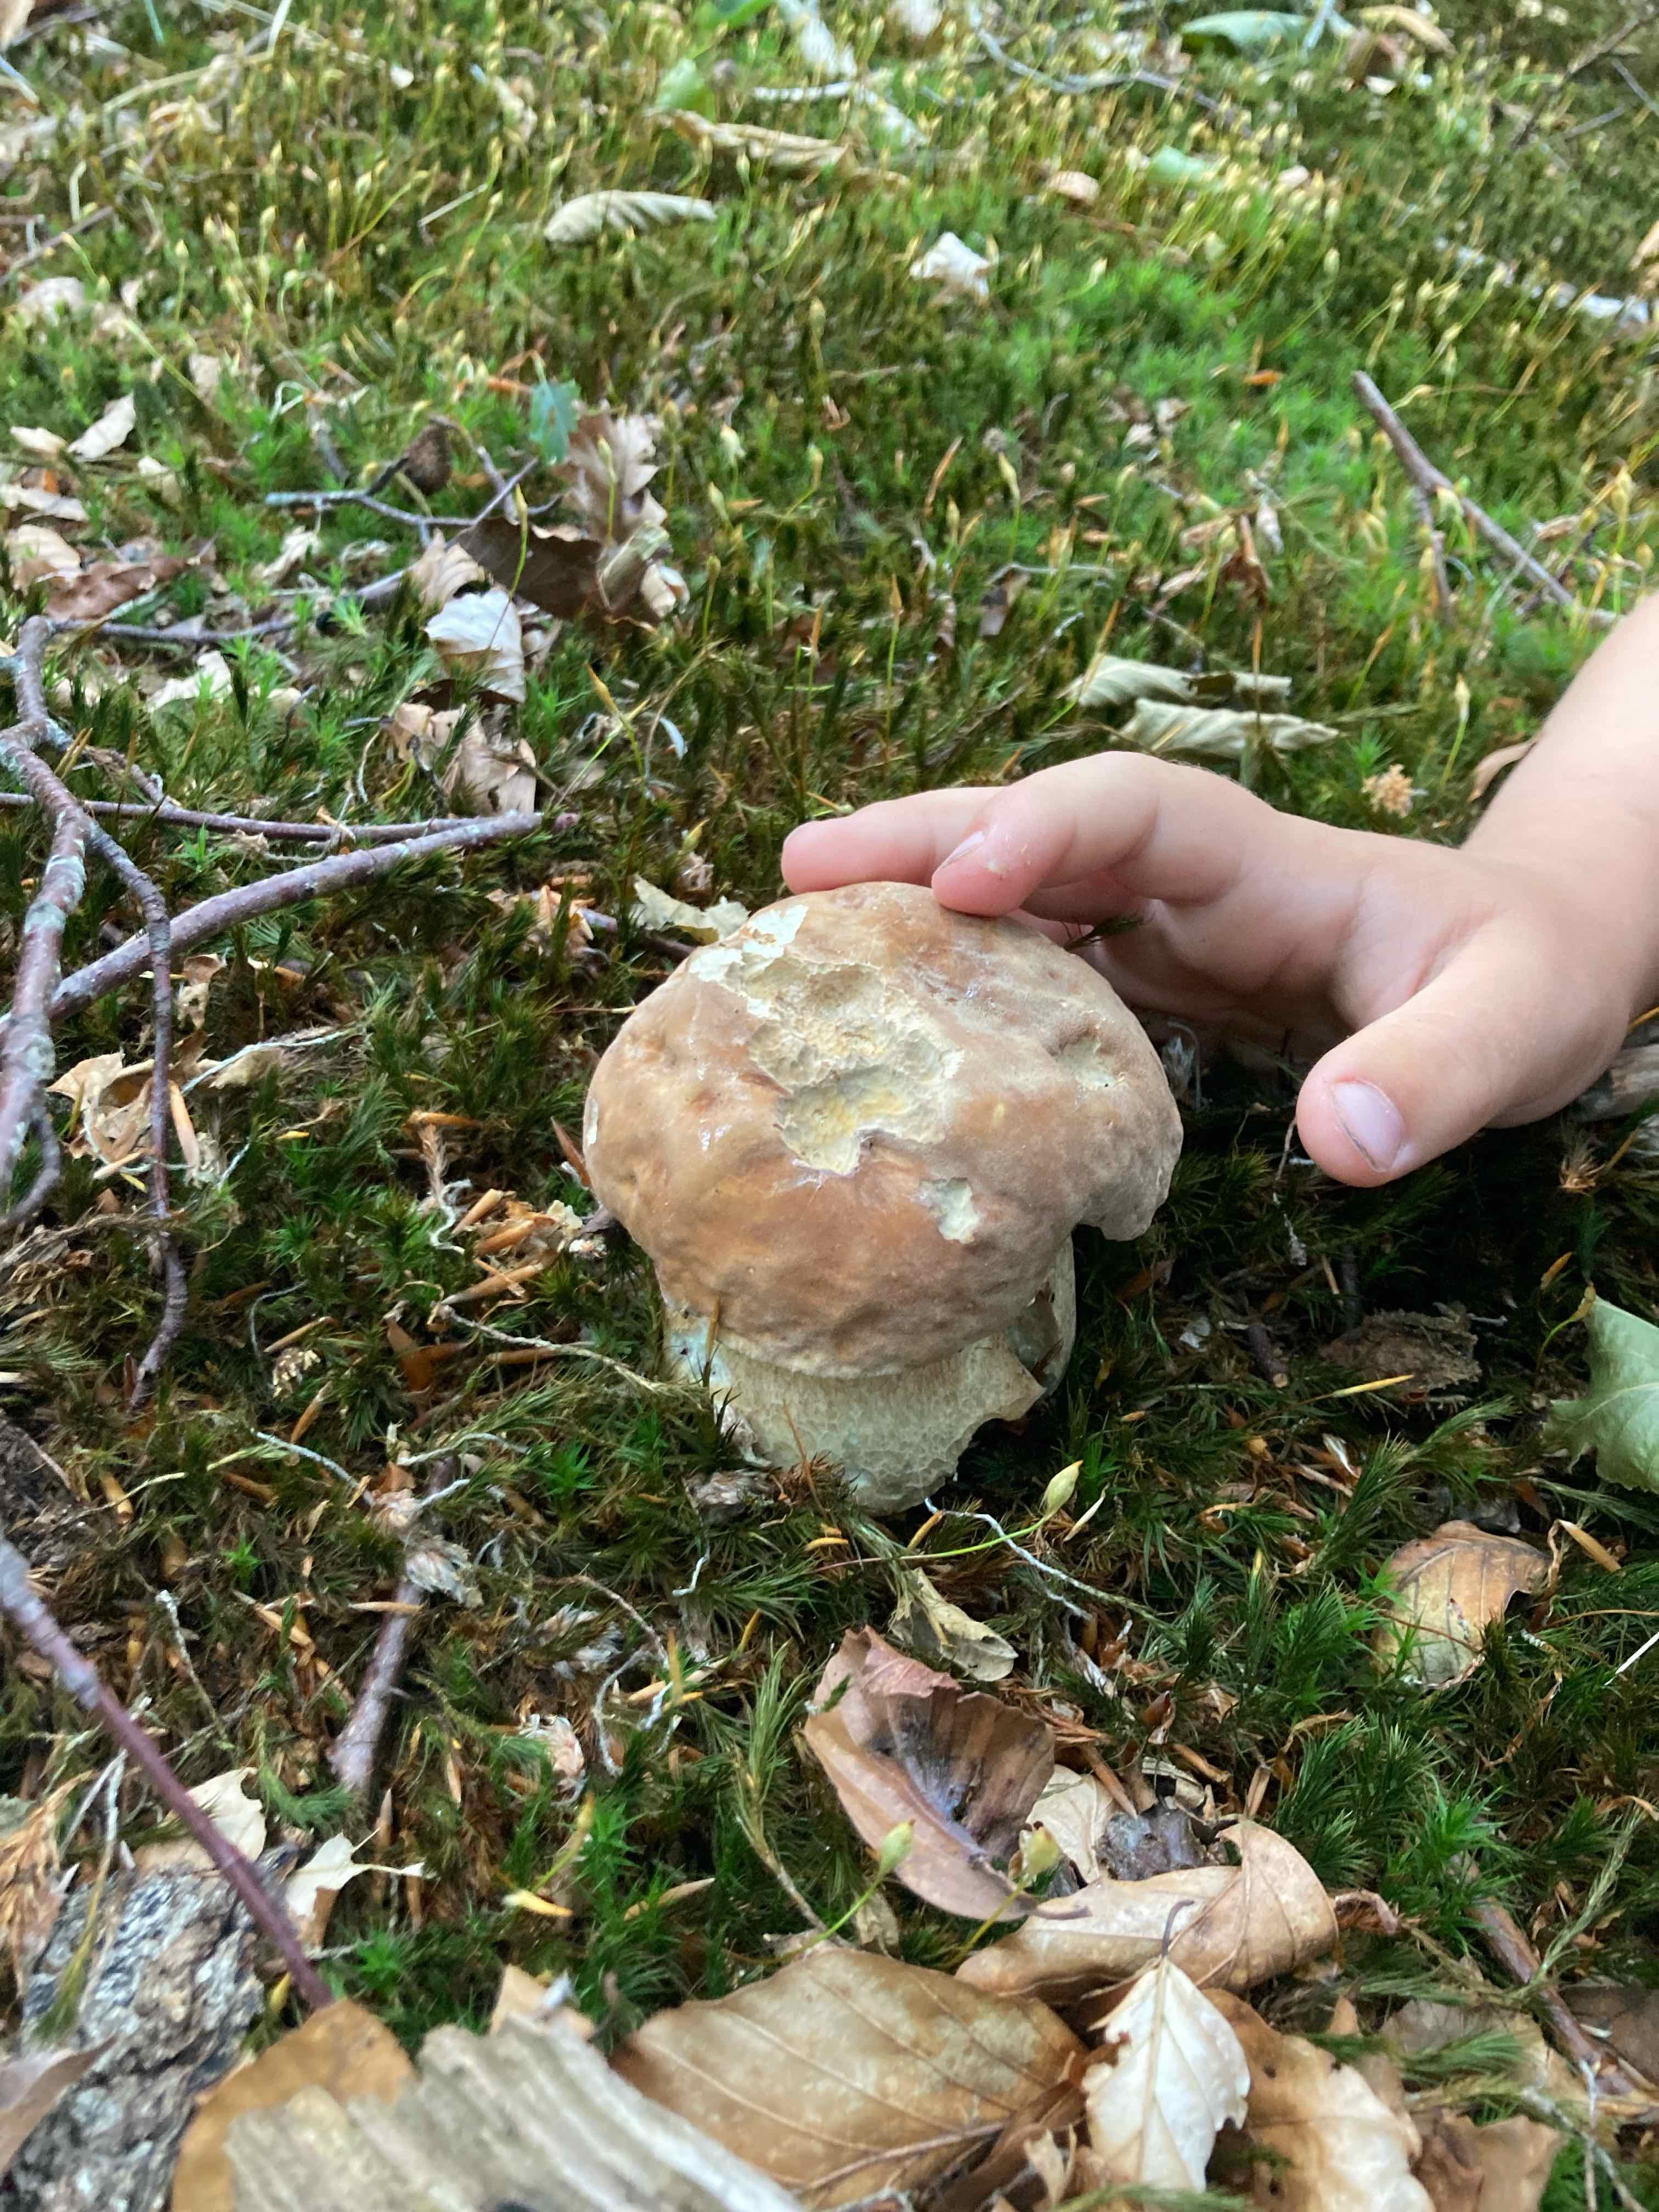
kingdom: Fungi
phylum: Basidiomycota
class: Agaricomycetes
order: Boletales
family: Boletaceae
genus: Boletus
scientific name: Boletus reticulatus
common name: sommer-rørhat
